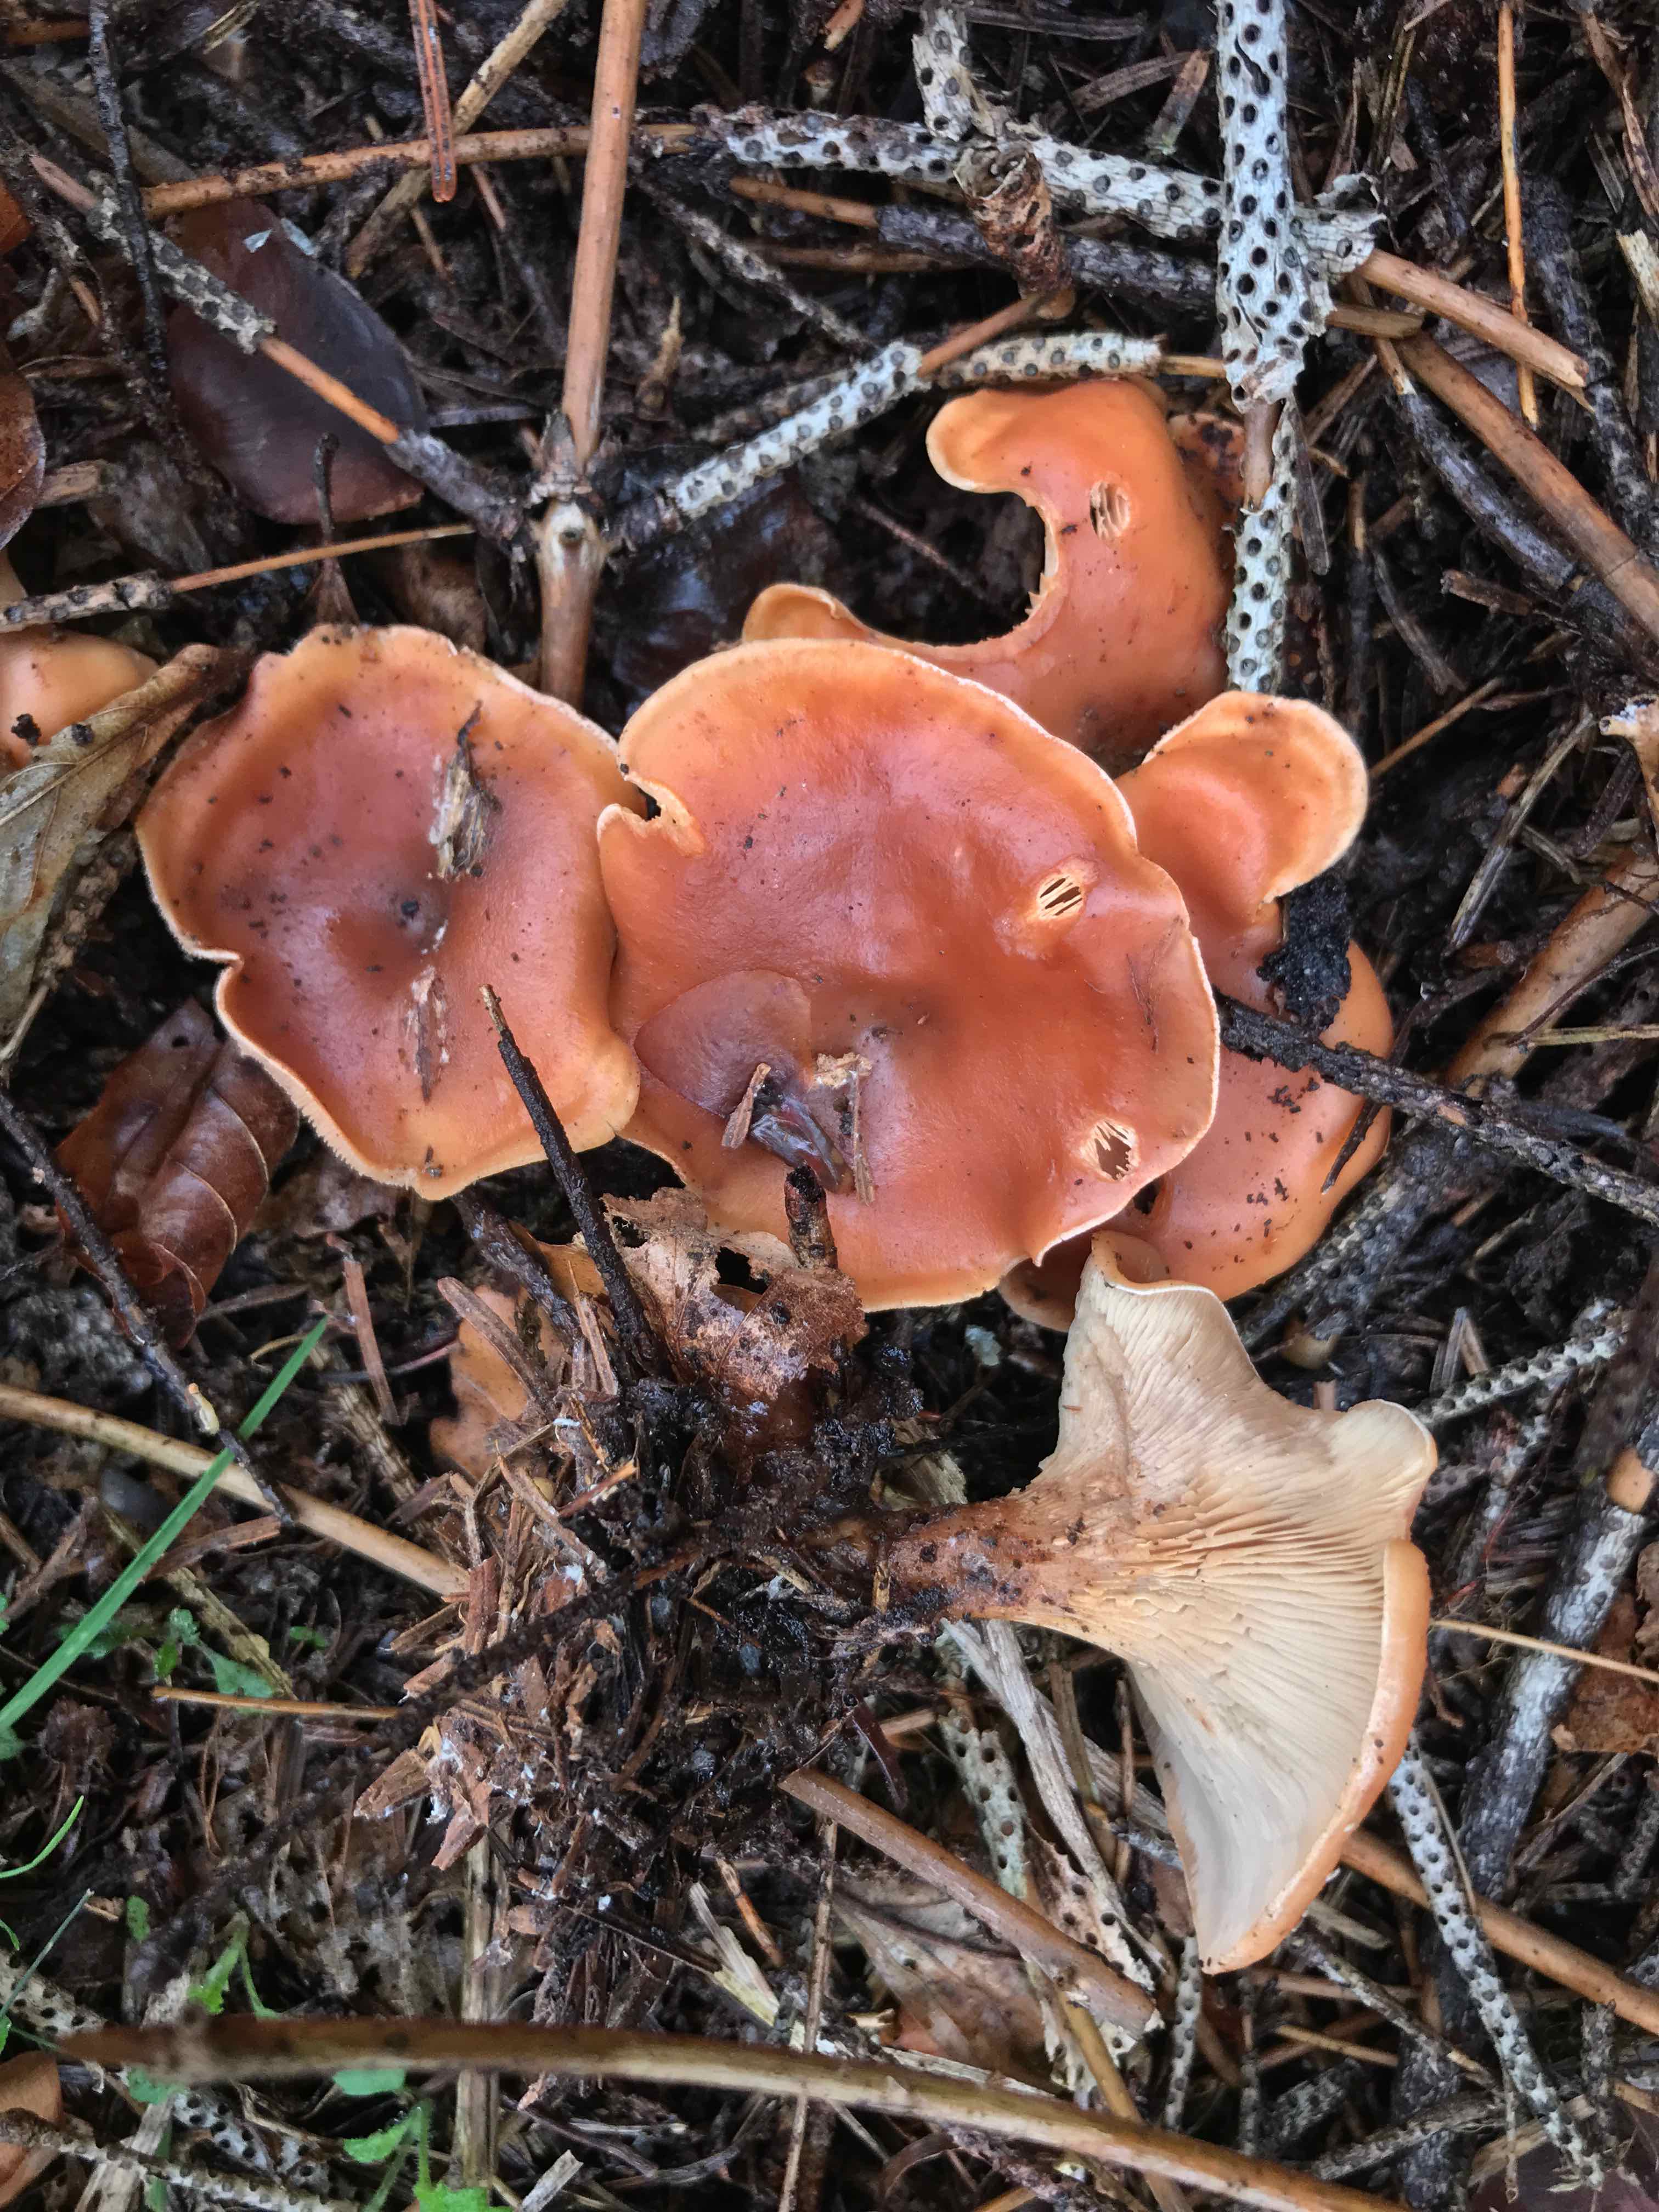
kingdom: Fungi
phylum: Basidiomycota
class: Agaricomycetes
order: Agaricales
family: Tricholomataceae
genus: Paralepista
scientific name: Paralepista flaccida
